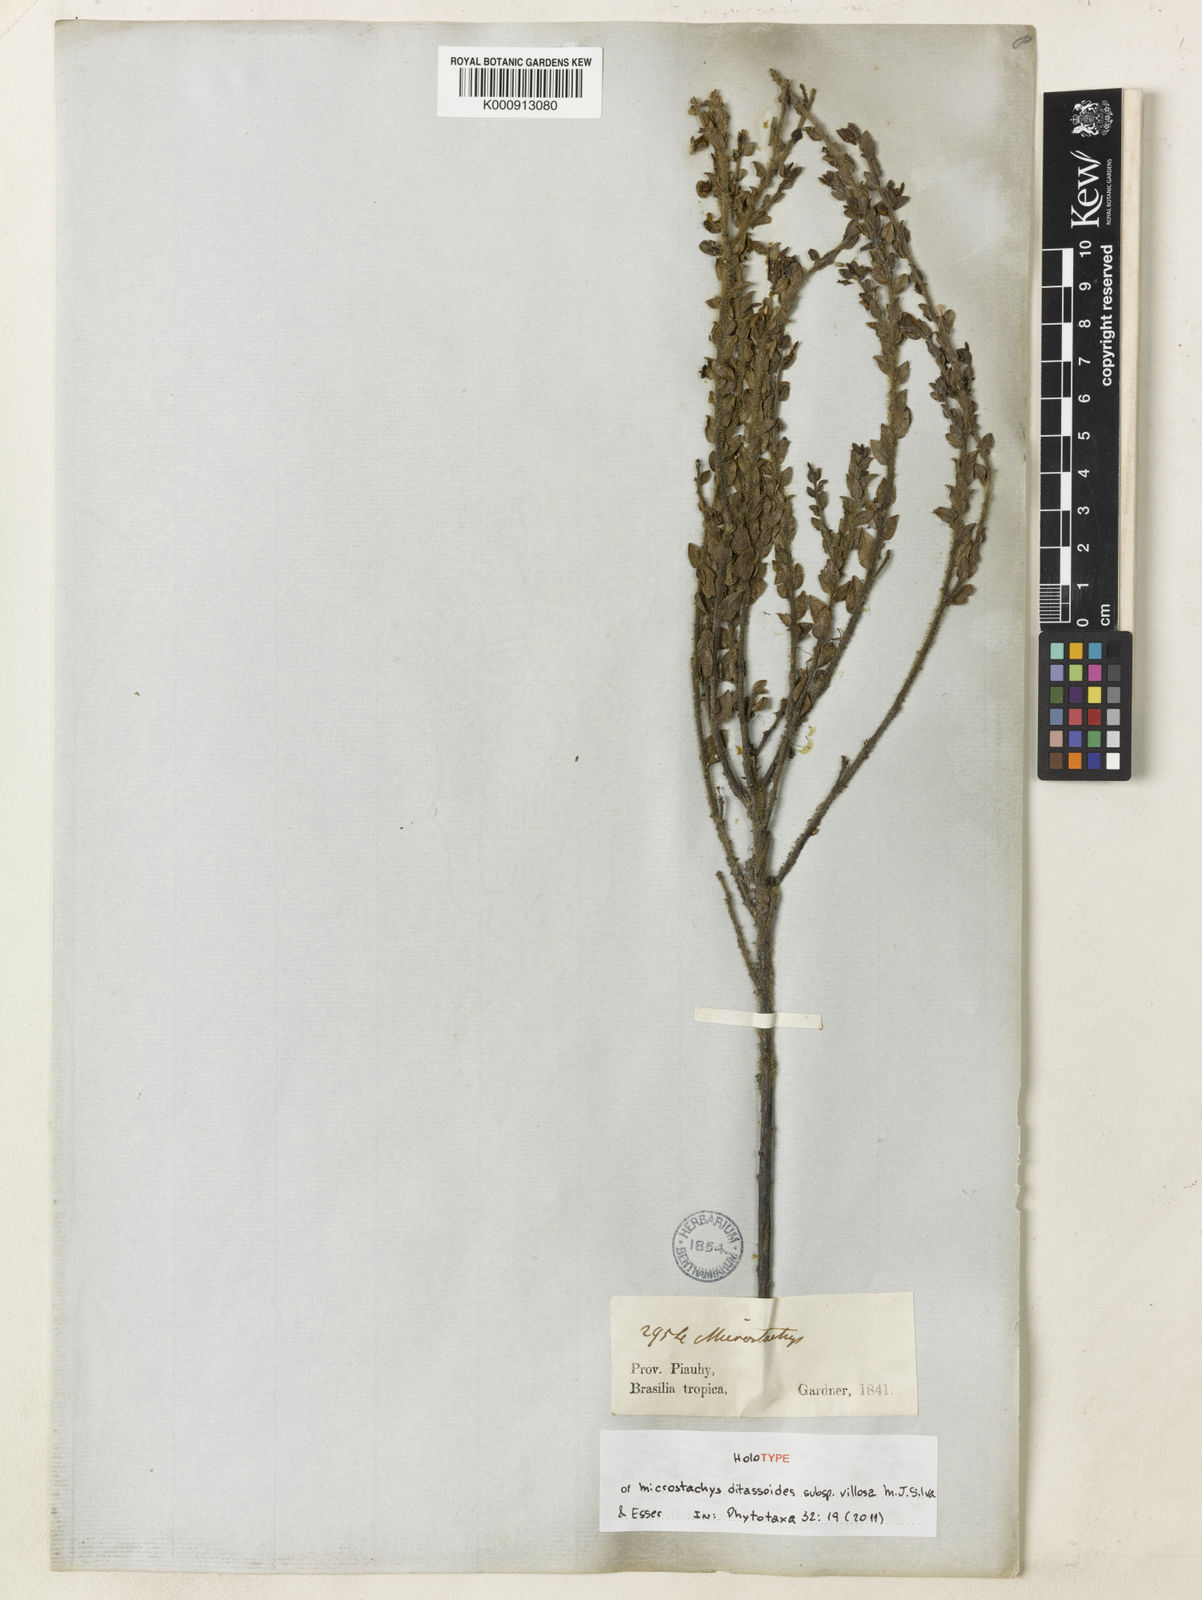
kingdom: Plantae
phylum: Tracheophyta
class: Magnoliopsida
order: Malpighiales
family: Euphorbiaceae
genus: Microstachys
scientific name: Microstachys ditassoides
